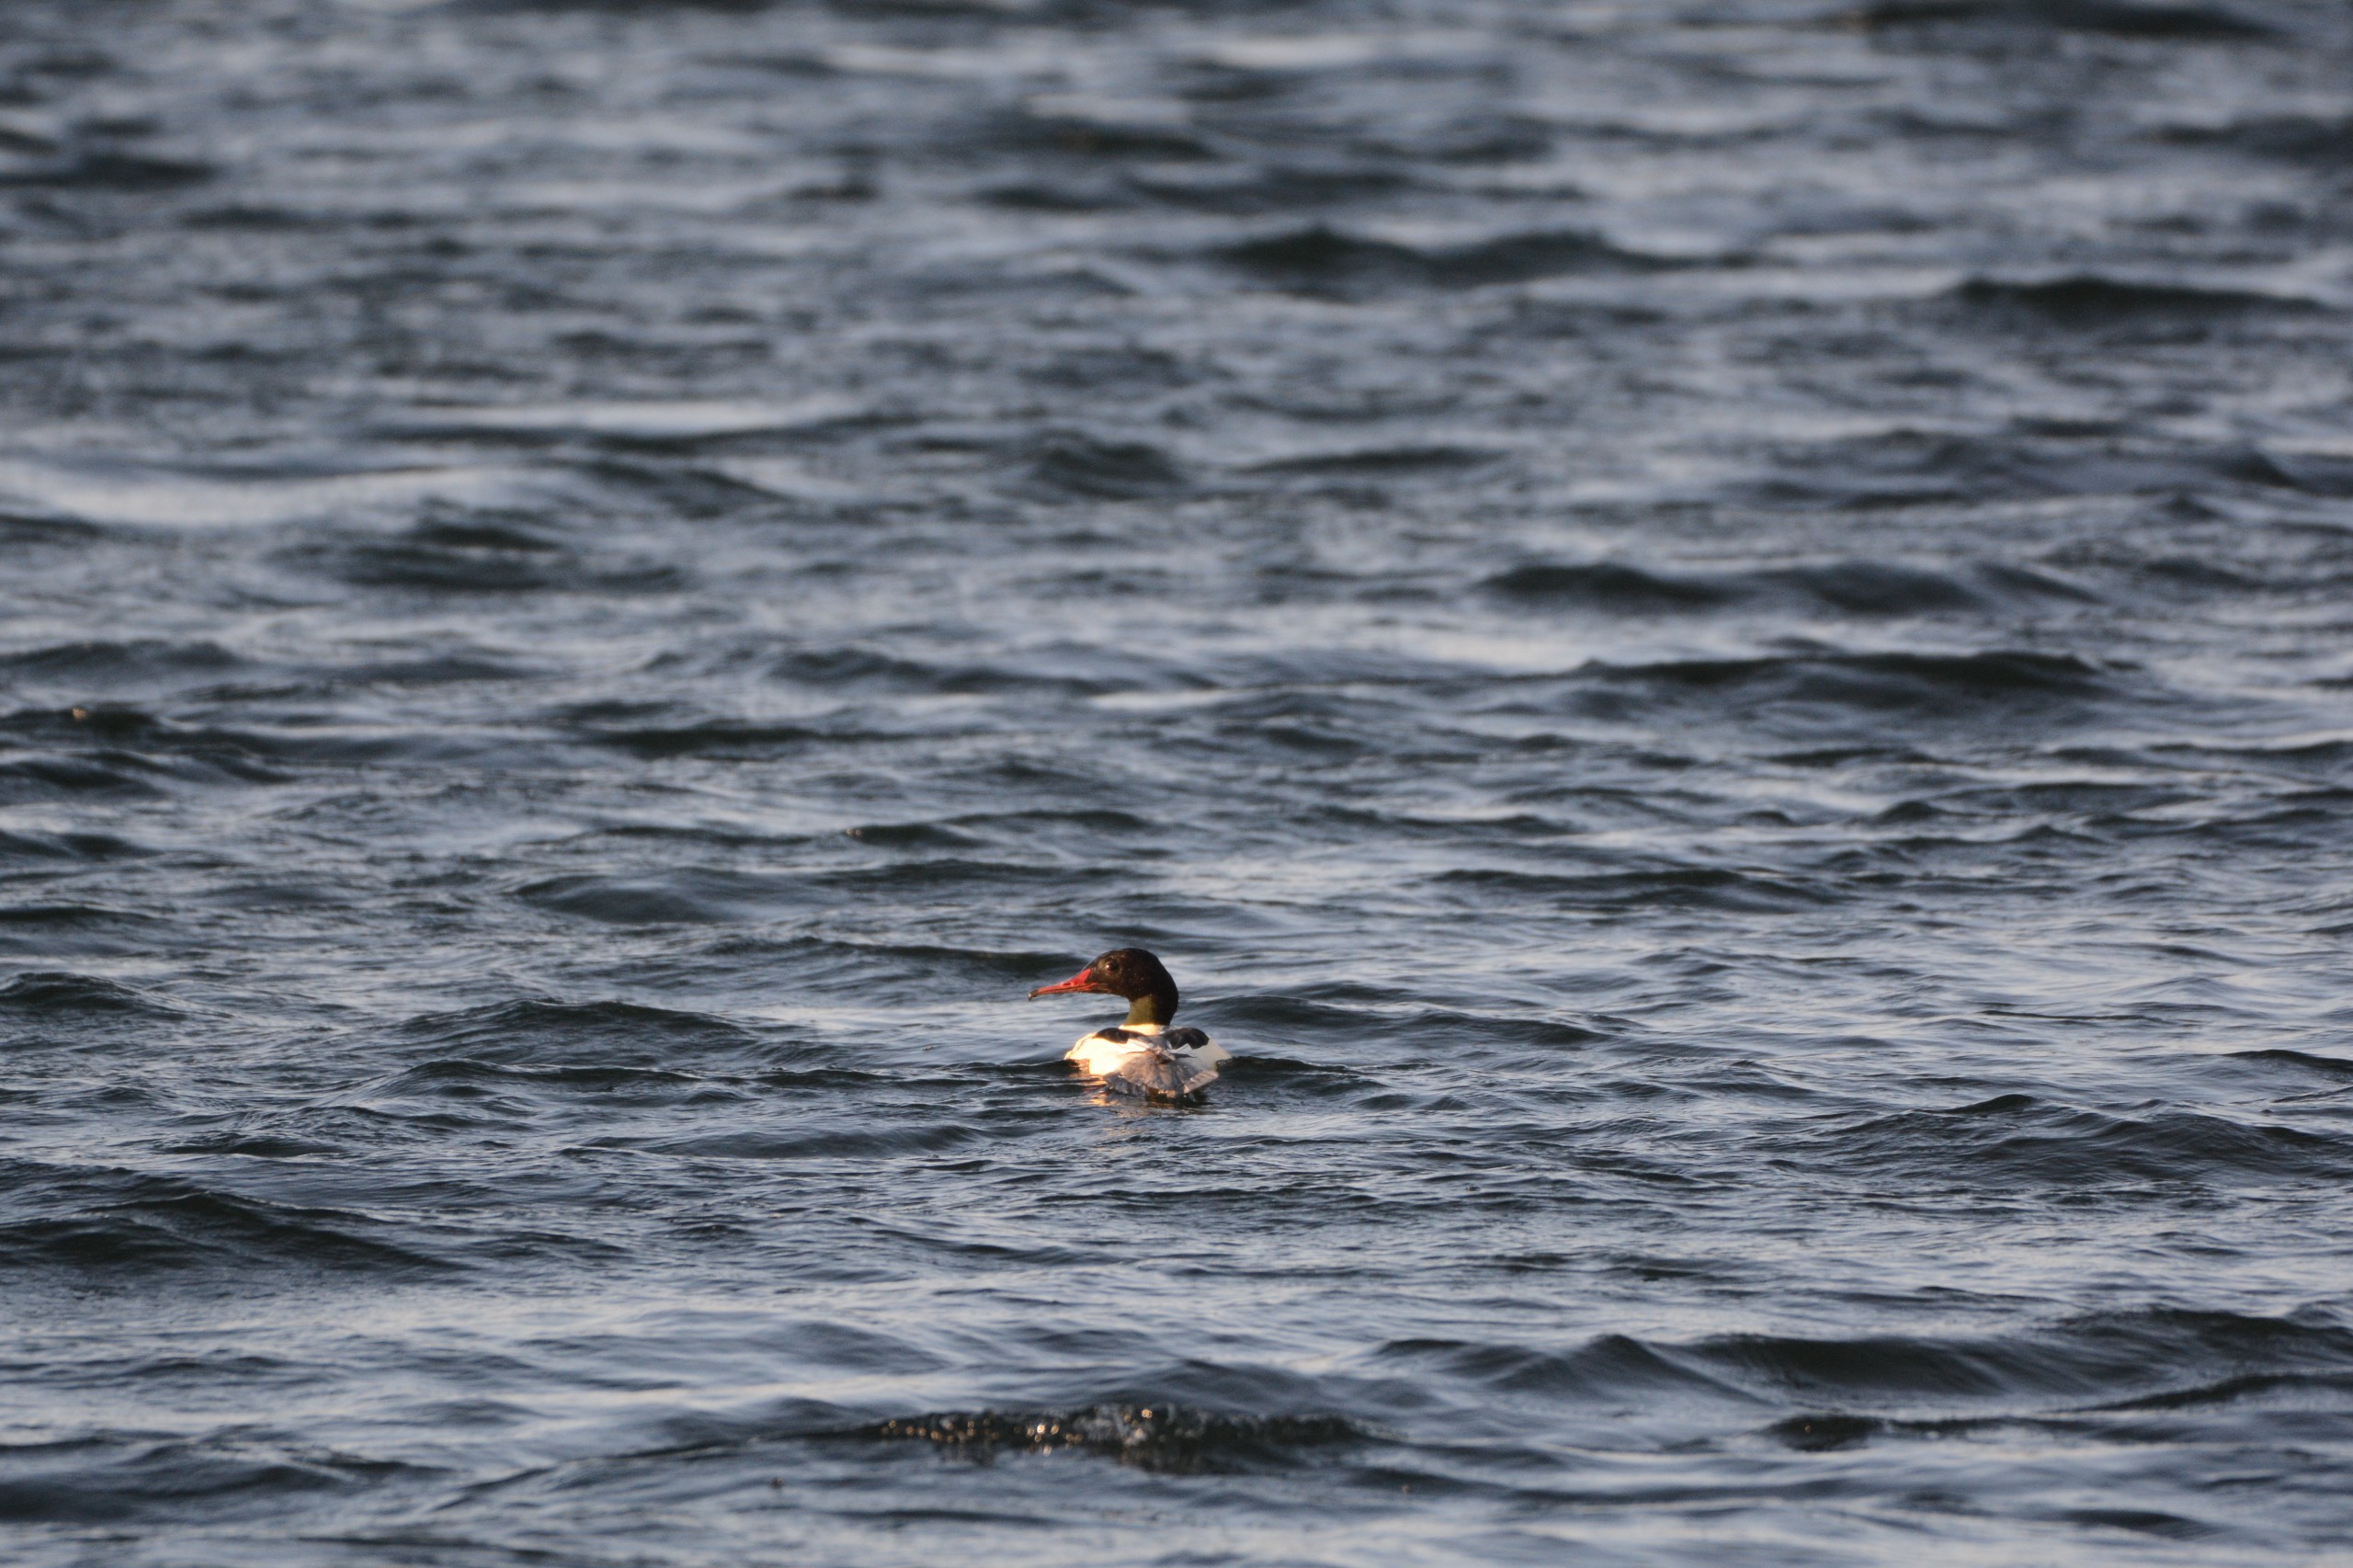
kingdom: Animalia
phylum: Chordata
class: Aves
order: Anseriformes
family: Anatidae
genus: Mergus
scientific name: Mergus merganser
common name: Stor skallesluger
